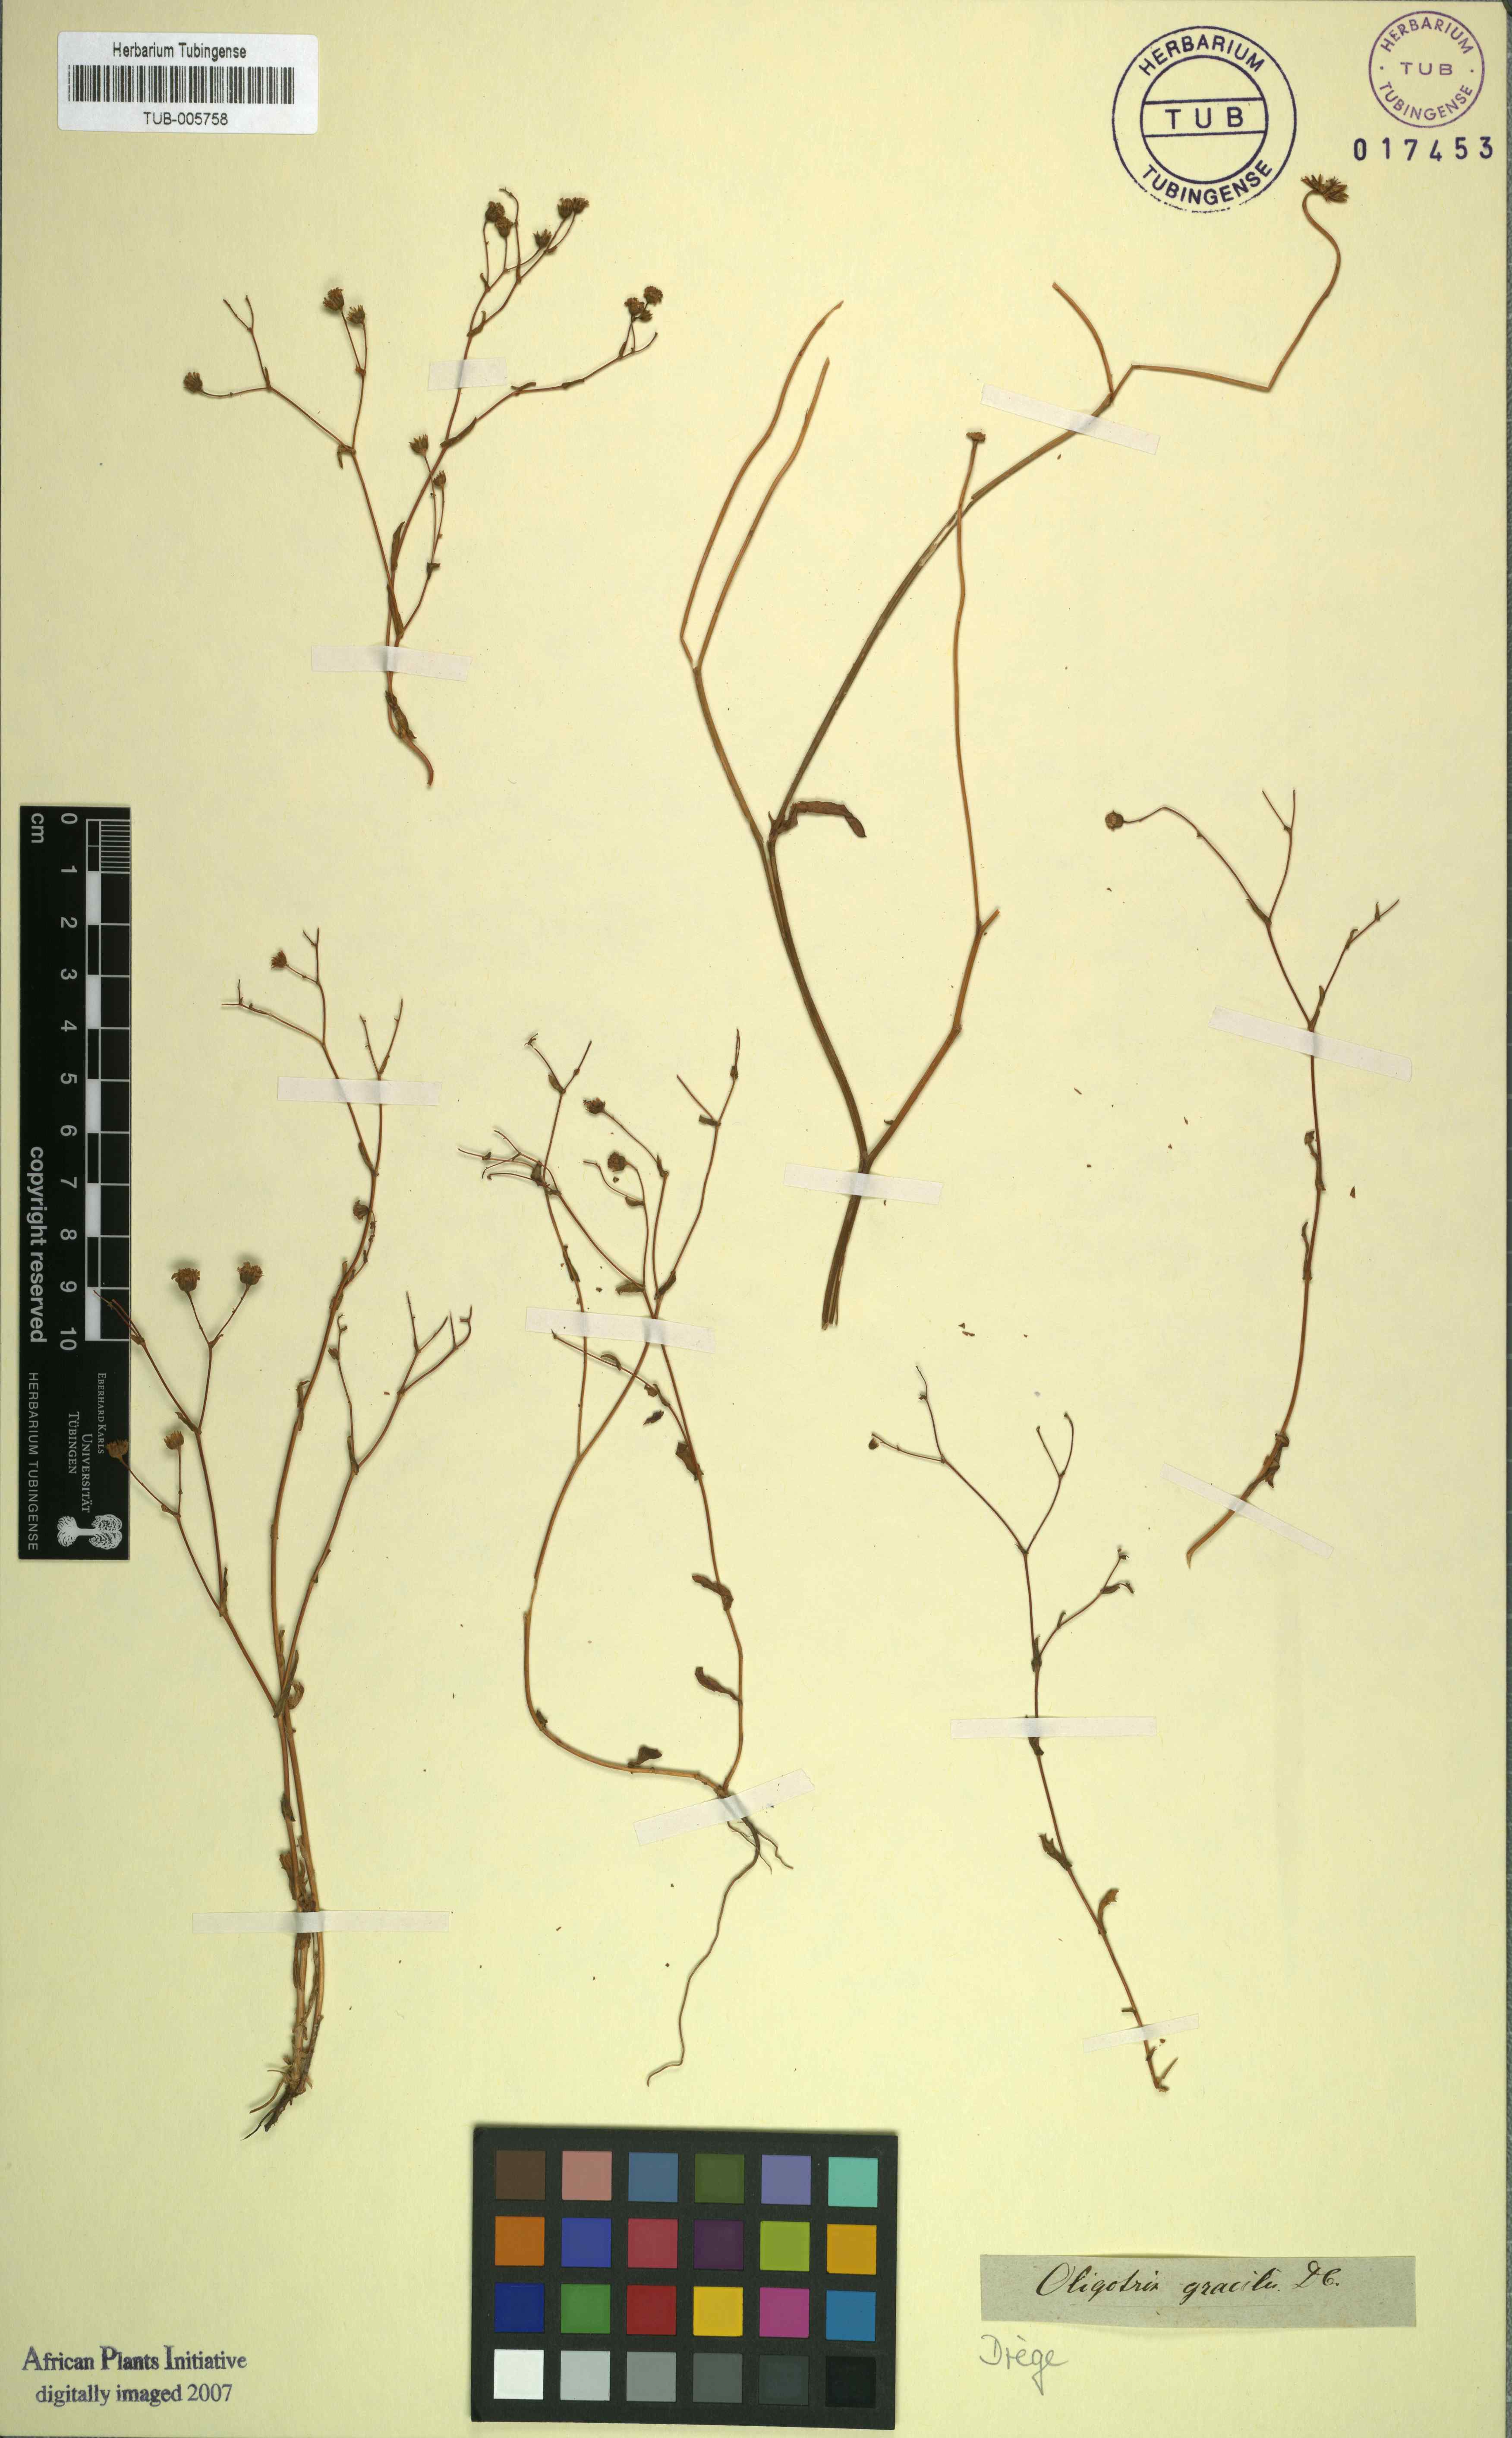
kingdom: Plantae
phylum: Tracheophyta
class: Magnoliopsida
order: Asterales
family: Asteraceae
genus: Oligothrix
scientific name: Oligothrix gracilis
